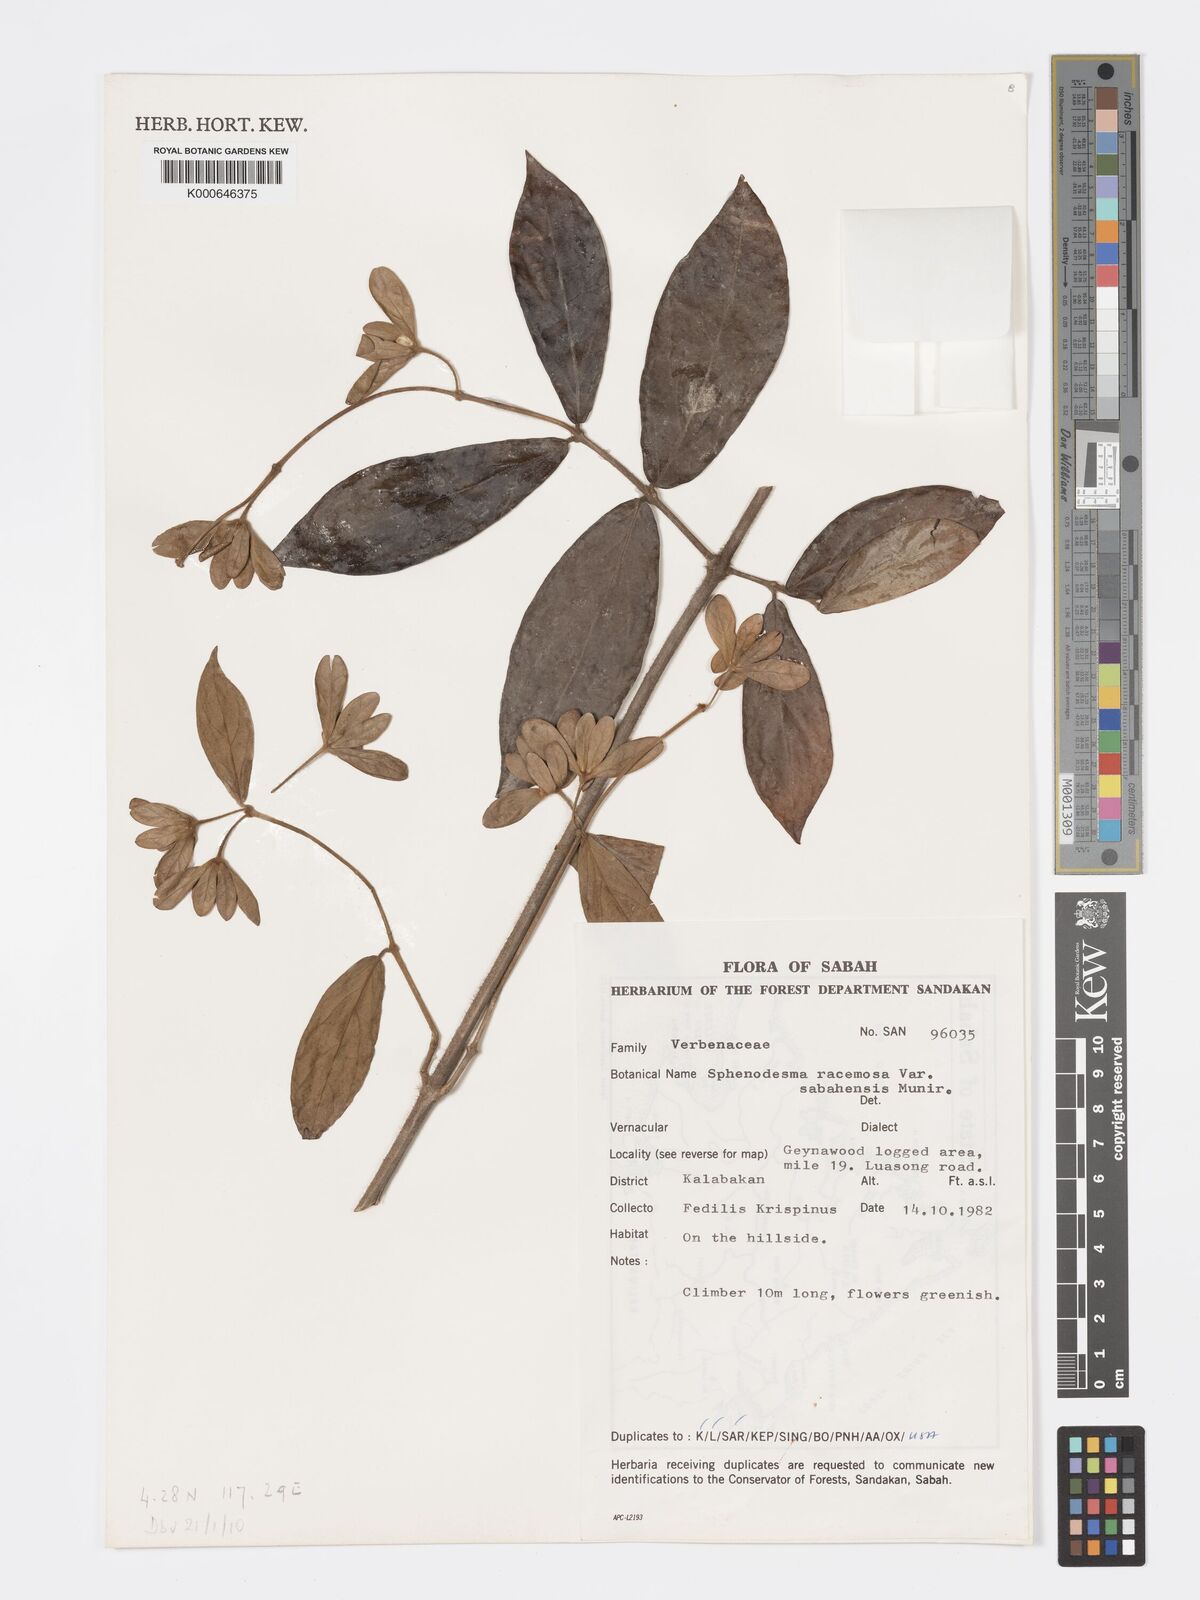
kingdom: Plantae
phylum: Tracheophyta
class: Magnoliopsida
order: Lamiales
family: Lamiaceae
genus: Sphenodesme
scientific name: Sphenodesme racemosa
